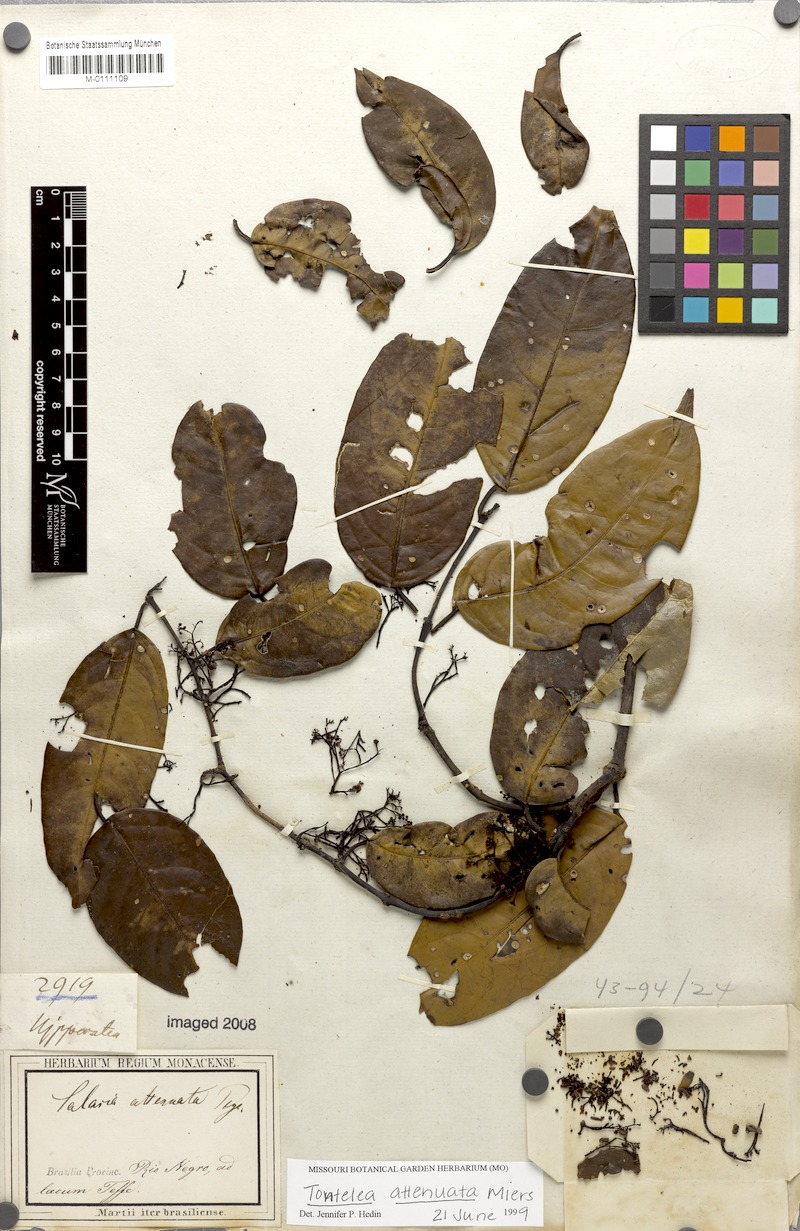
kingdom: Plantae
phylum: Tracheophyta
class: Magnoliopsida
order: Celastrales
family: Celastraceae
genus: Tontelea
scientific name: Tontelea attenuata
